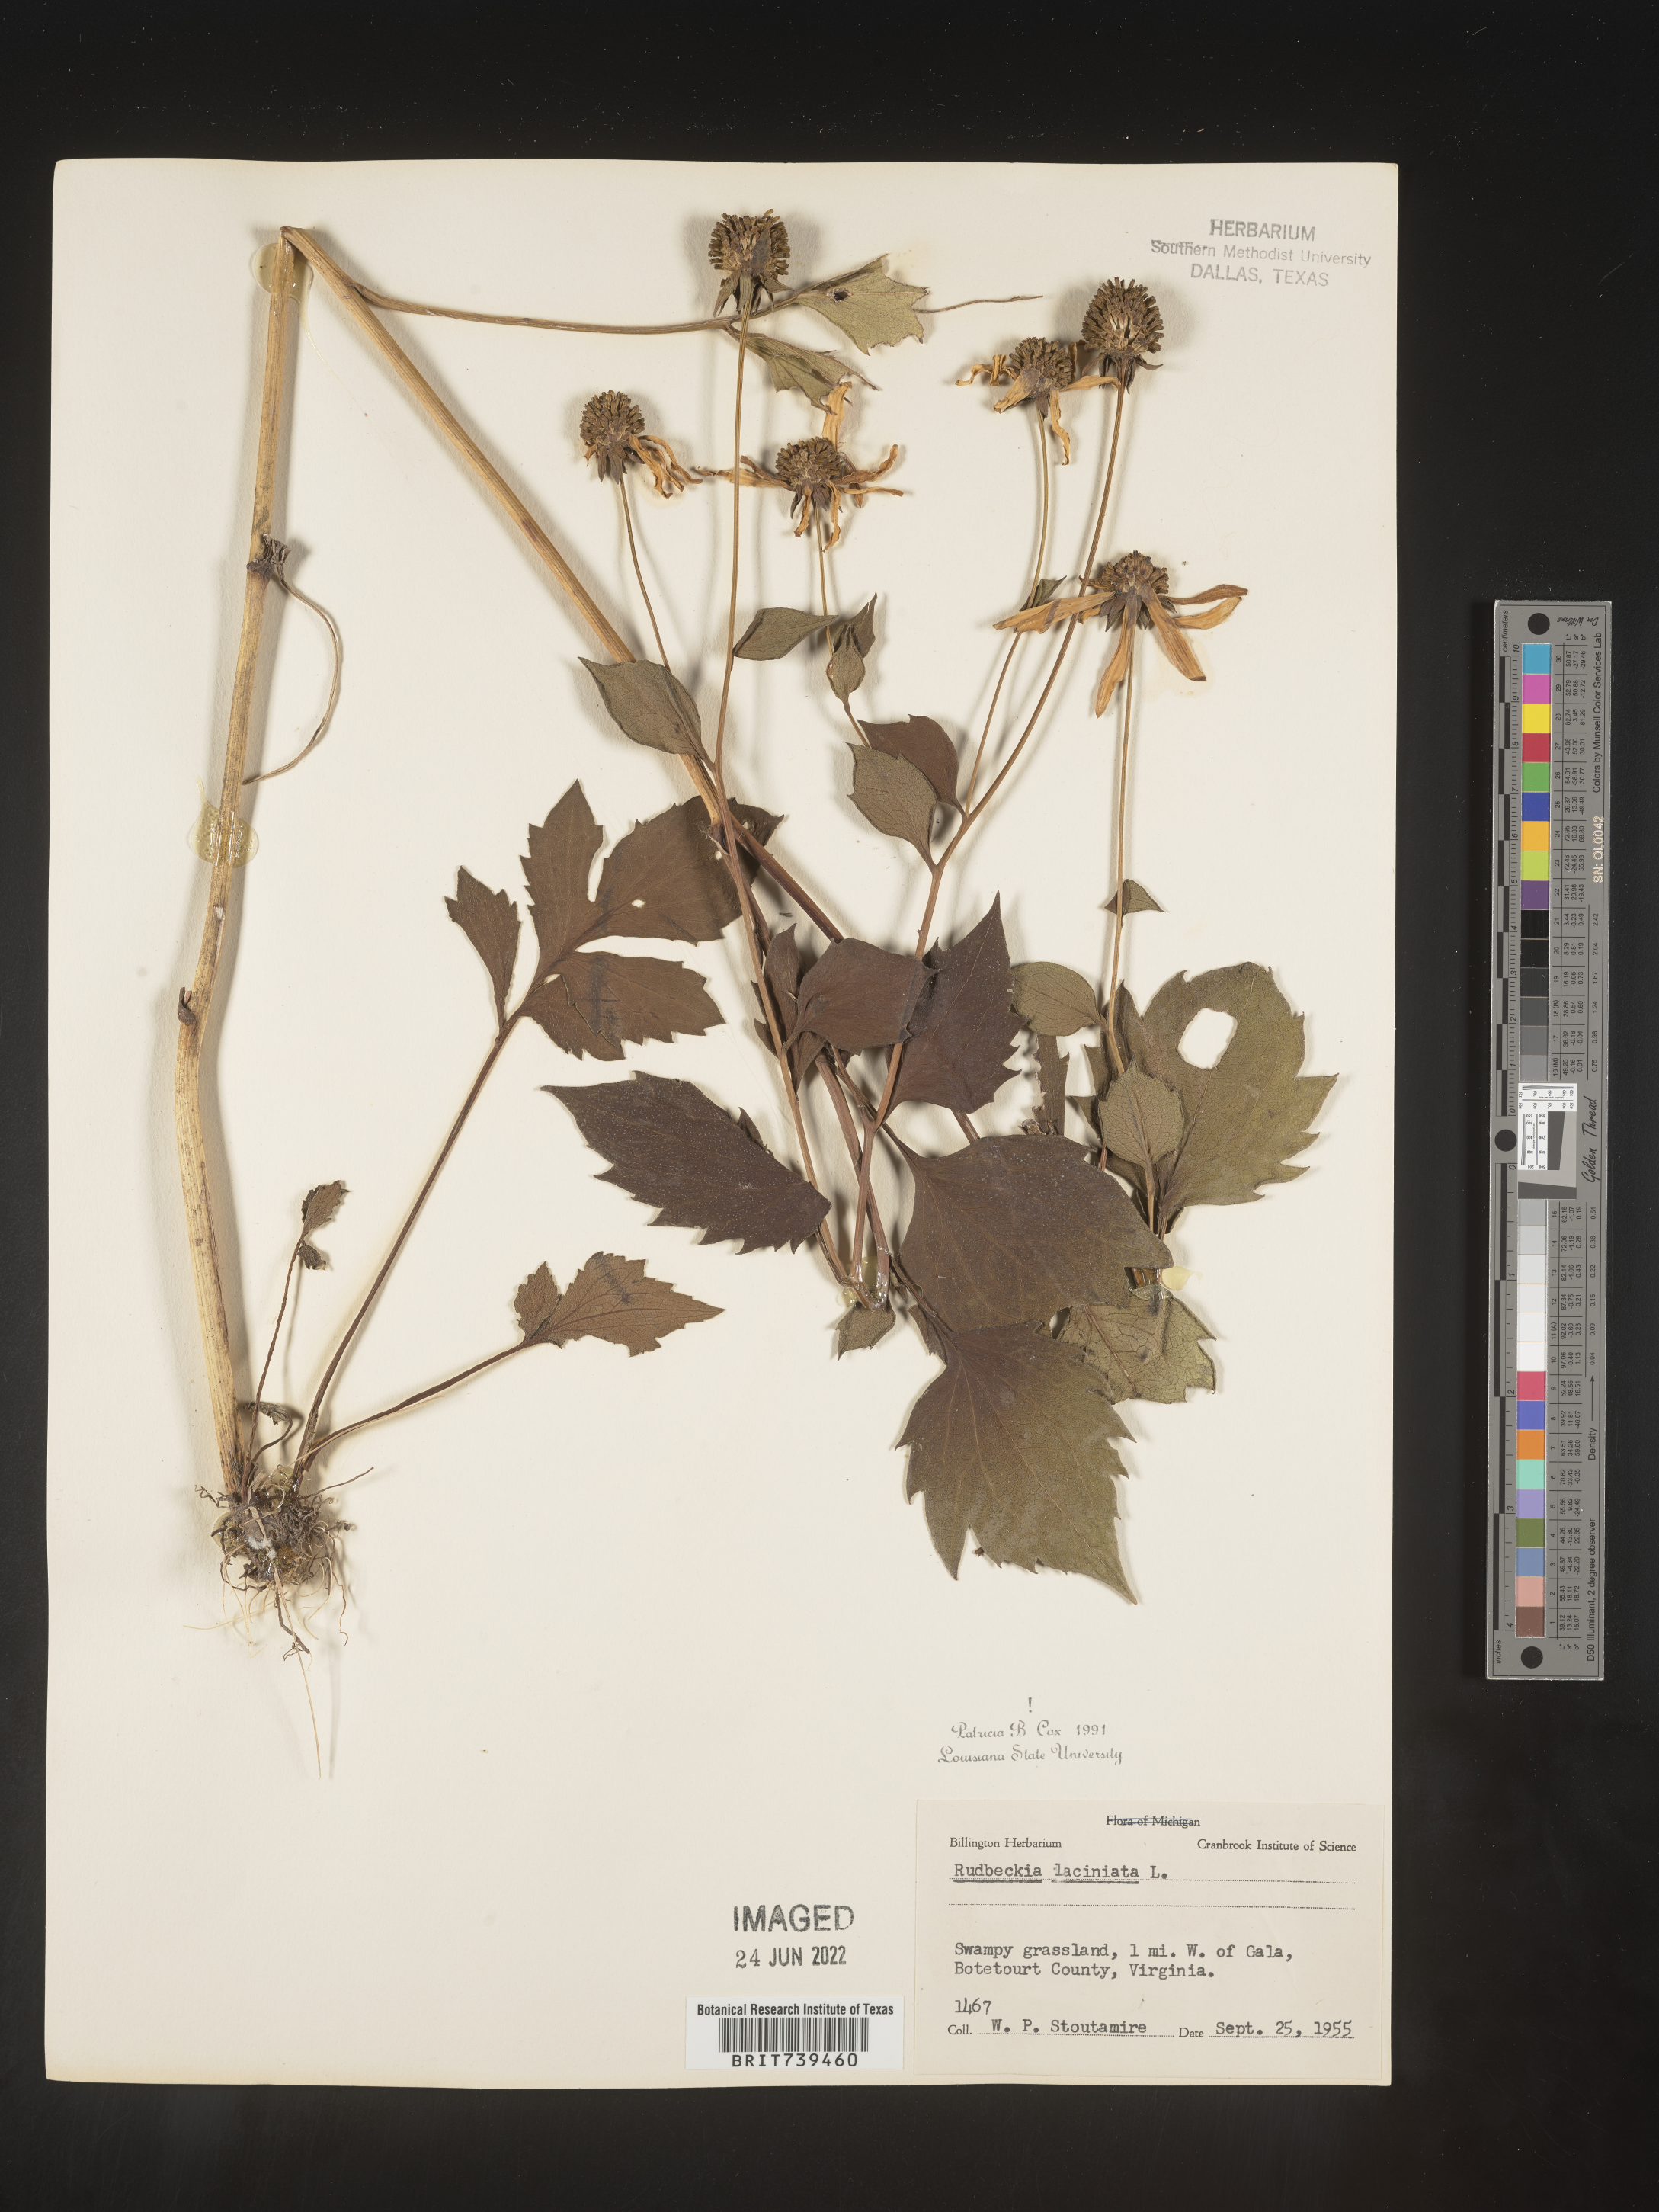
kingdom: Plantae
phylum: Tracheophyta
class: Magnoliopsida
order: Asterales
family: Asteraceae
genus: Rudbeckia
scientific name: Rudbeckia laciniata
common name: Coneflower
